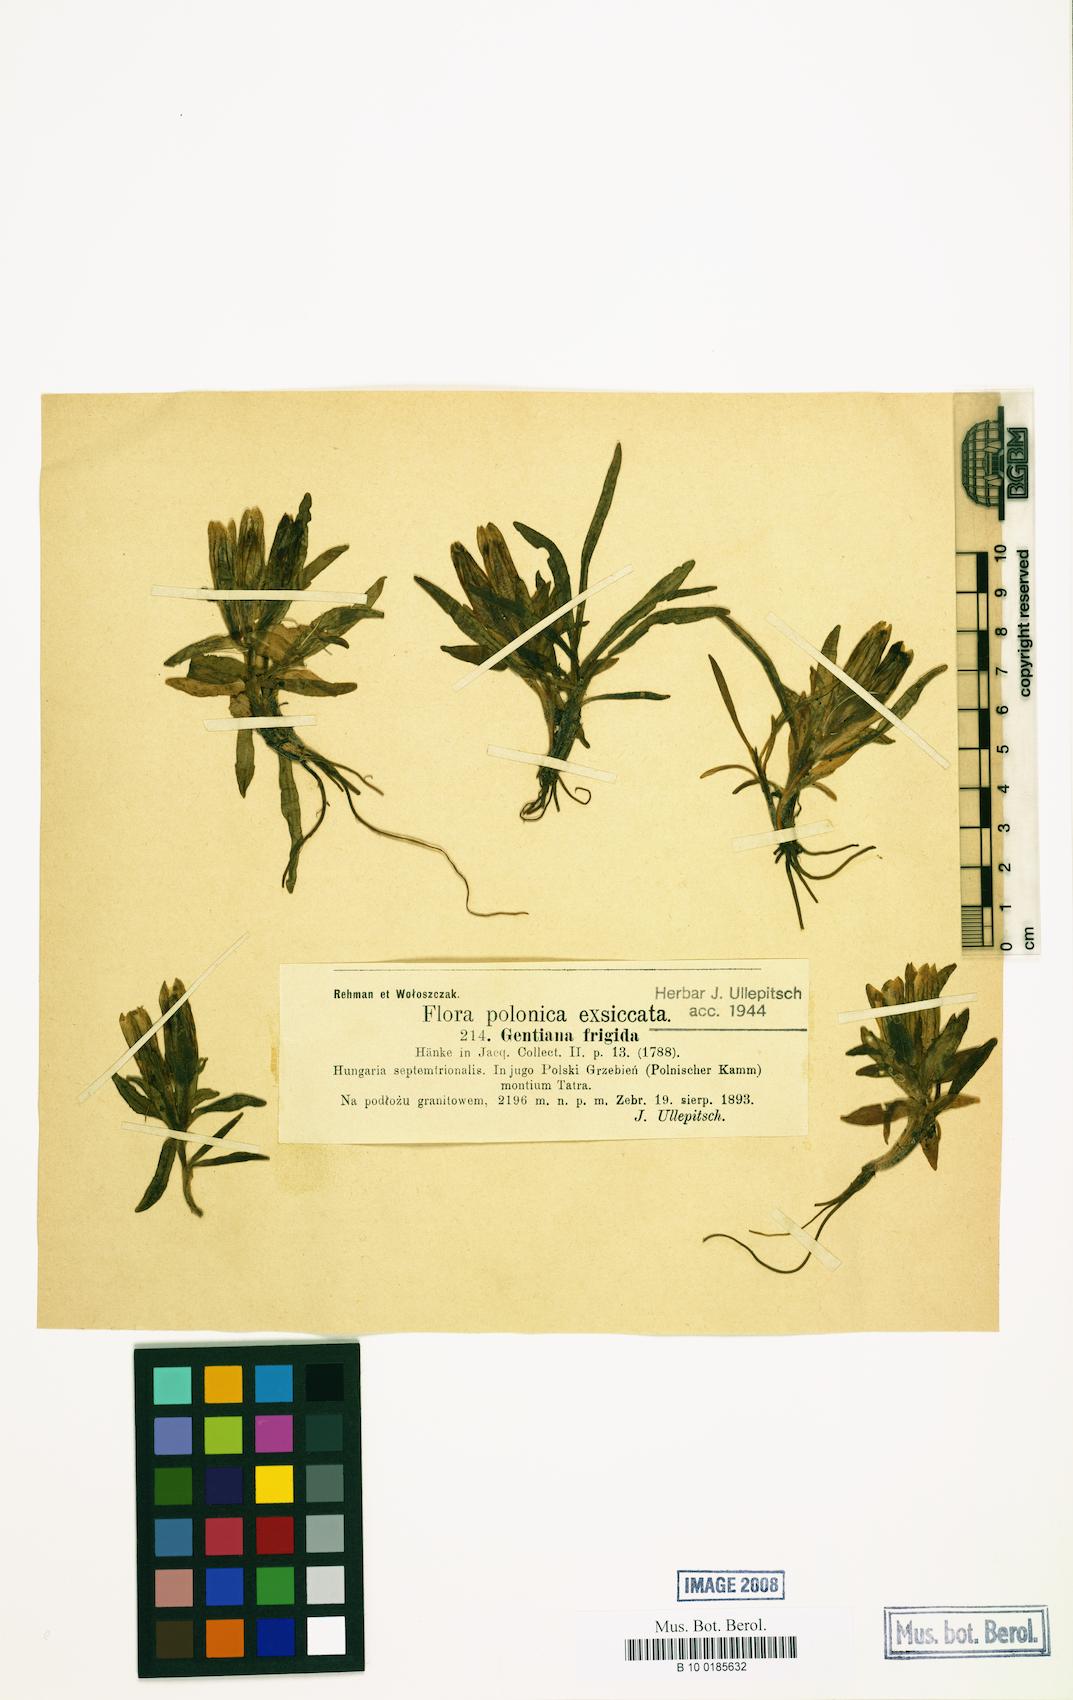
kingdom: Plantae
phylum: Tracheophyta
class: Magnoliopsida
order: Gentianales
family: Gentianaceae
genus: Gentiana
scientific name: Gentiana frigida
